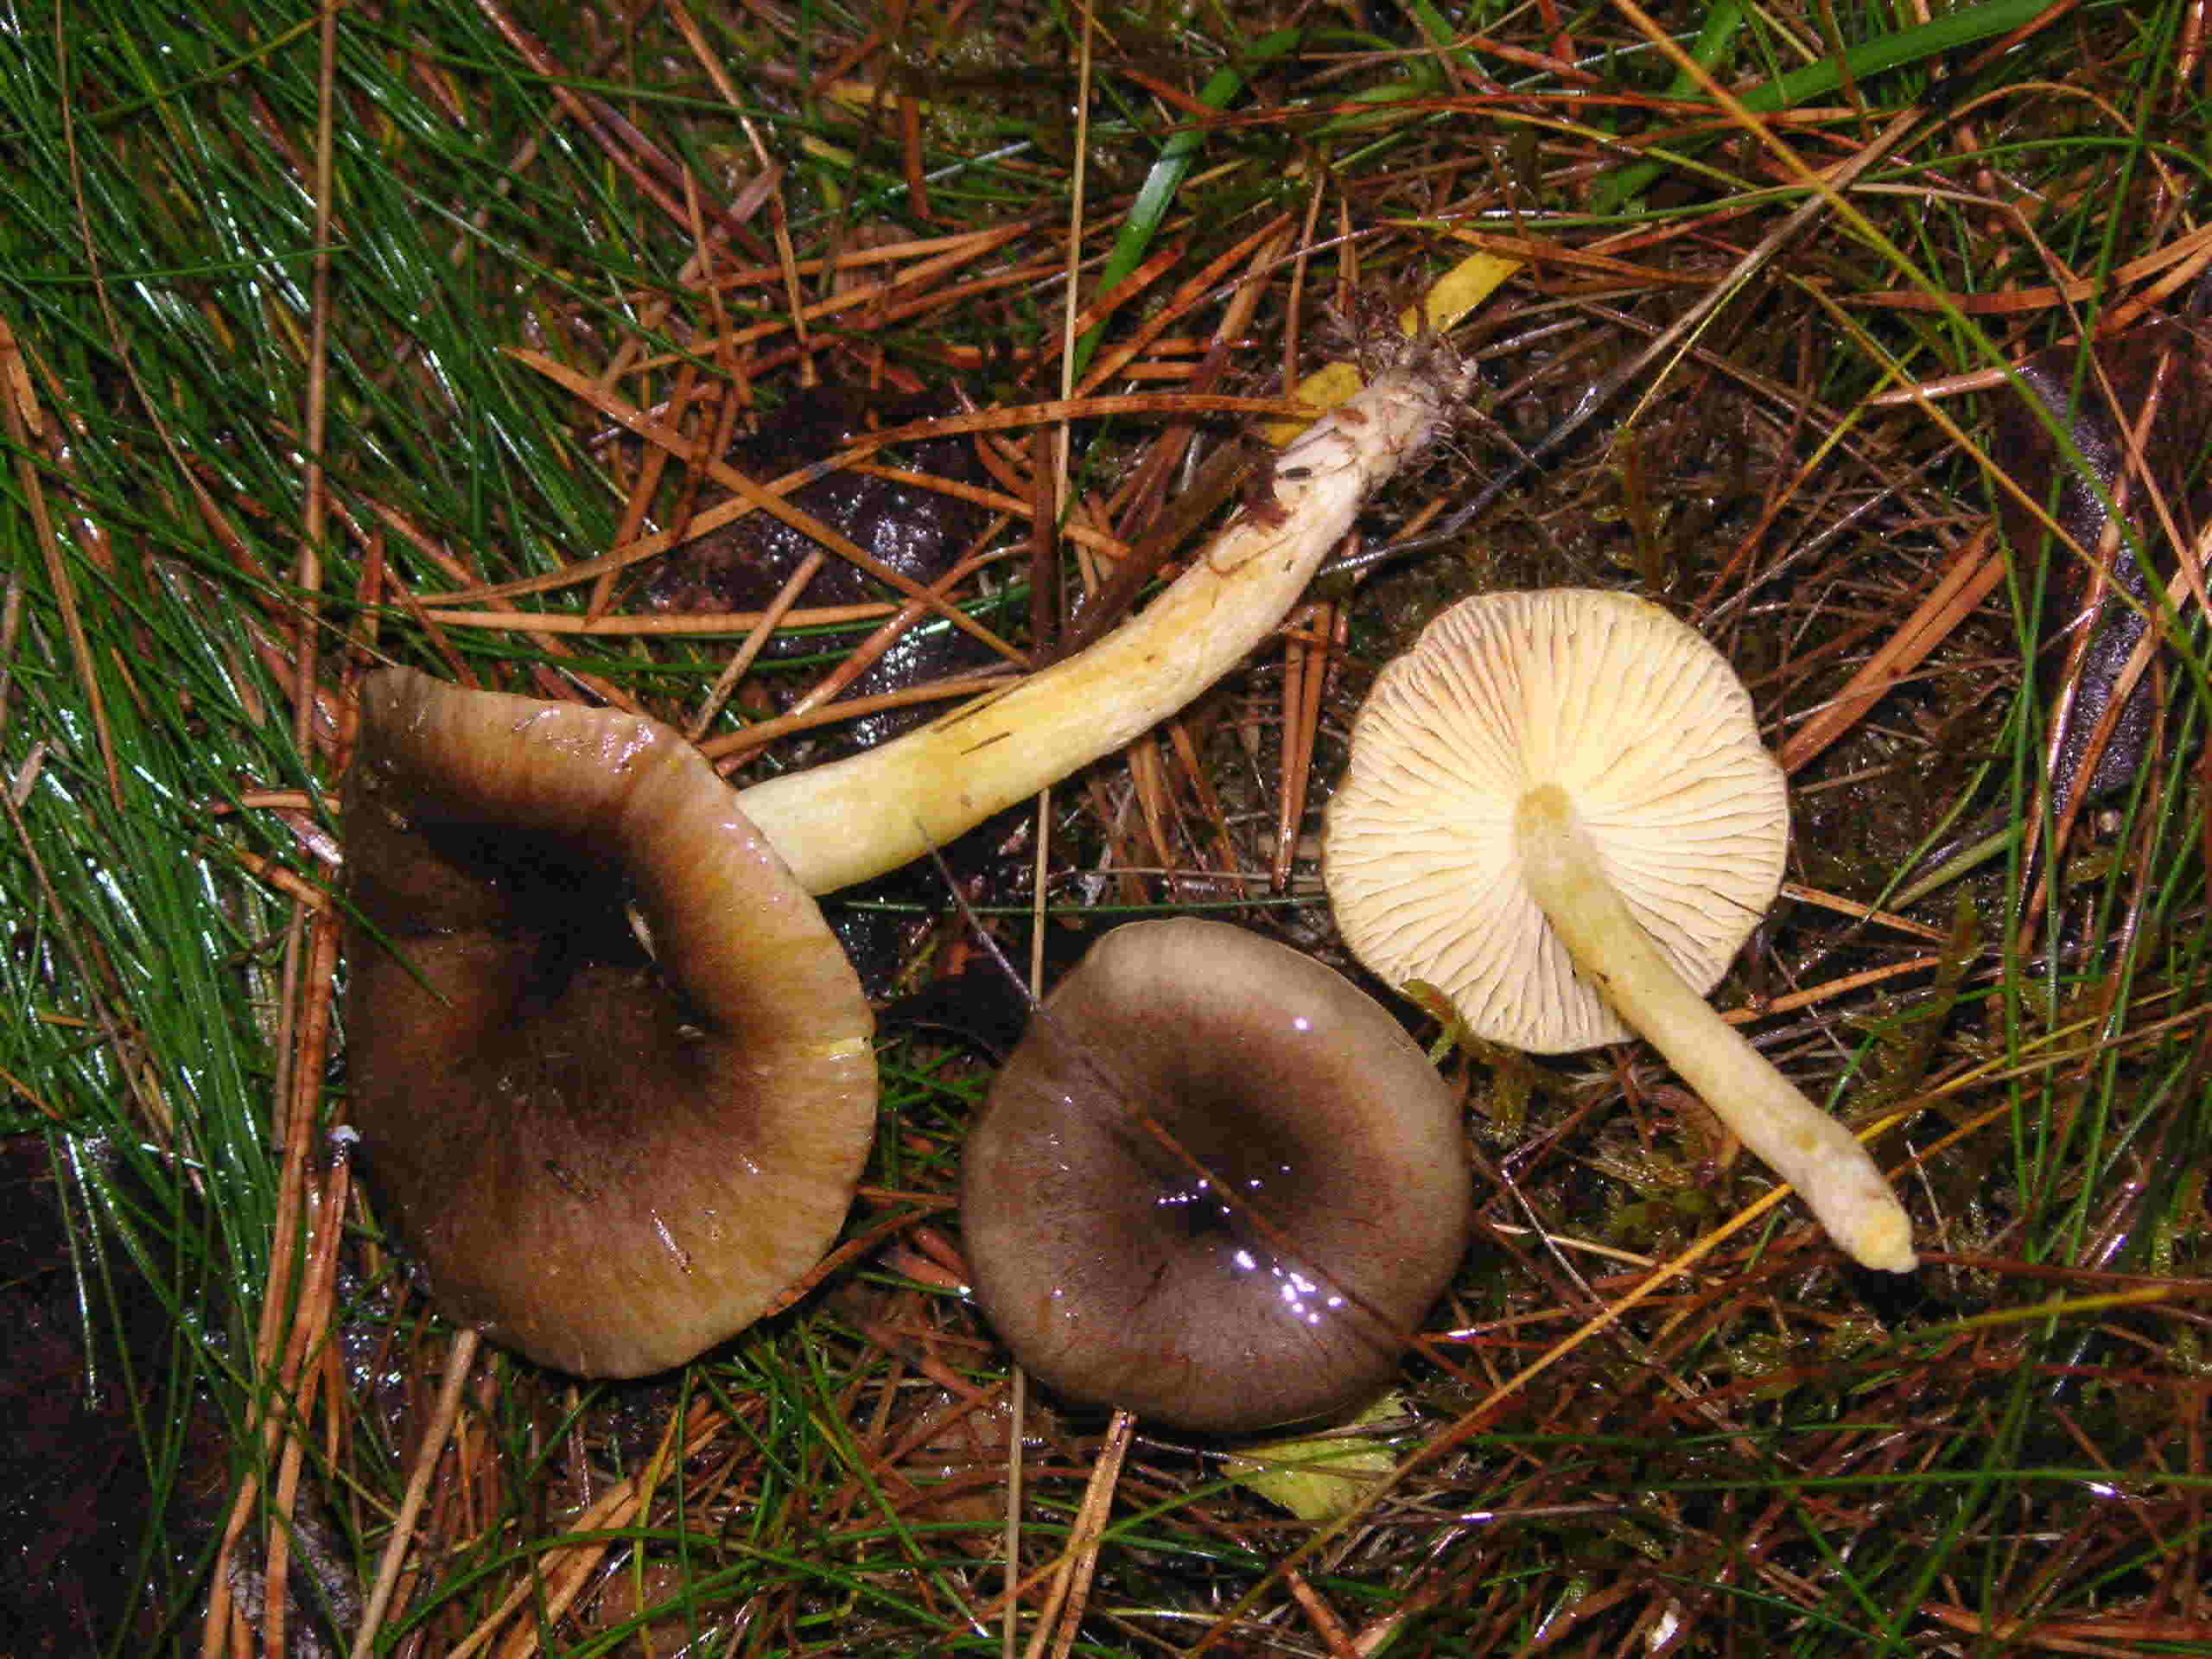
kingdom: Fungi
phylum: Basidiomycota
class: Agaricomycetes
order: Agaricales
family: Hygrophoraceae
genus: Hygrophorus
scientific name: Hygrophorus hypothejus
